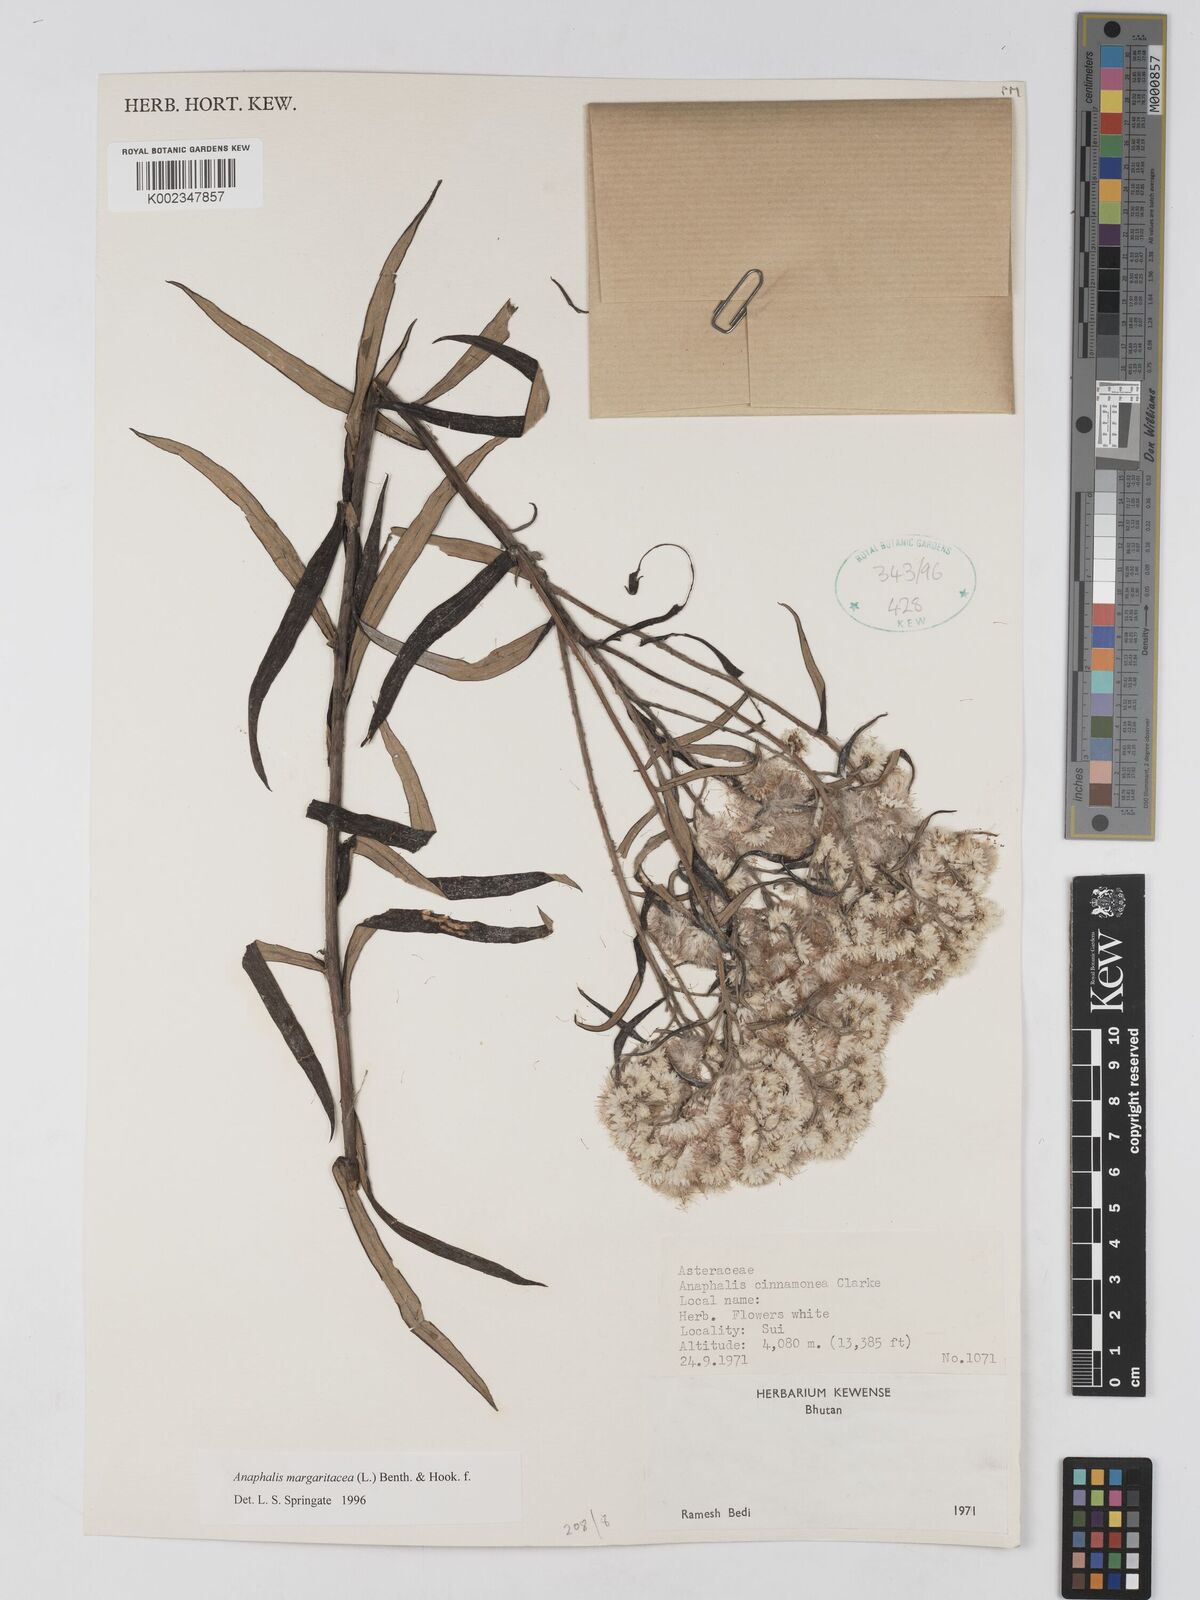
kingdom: Plantae
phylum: Tracheophyta
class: Magnoliopsida
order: Asterales
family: Asteraceae
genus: Anaphalis
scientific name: Anaphalis margaritacea
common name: Pearly everlasting
